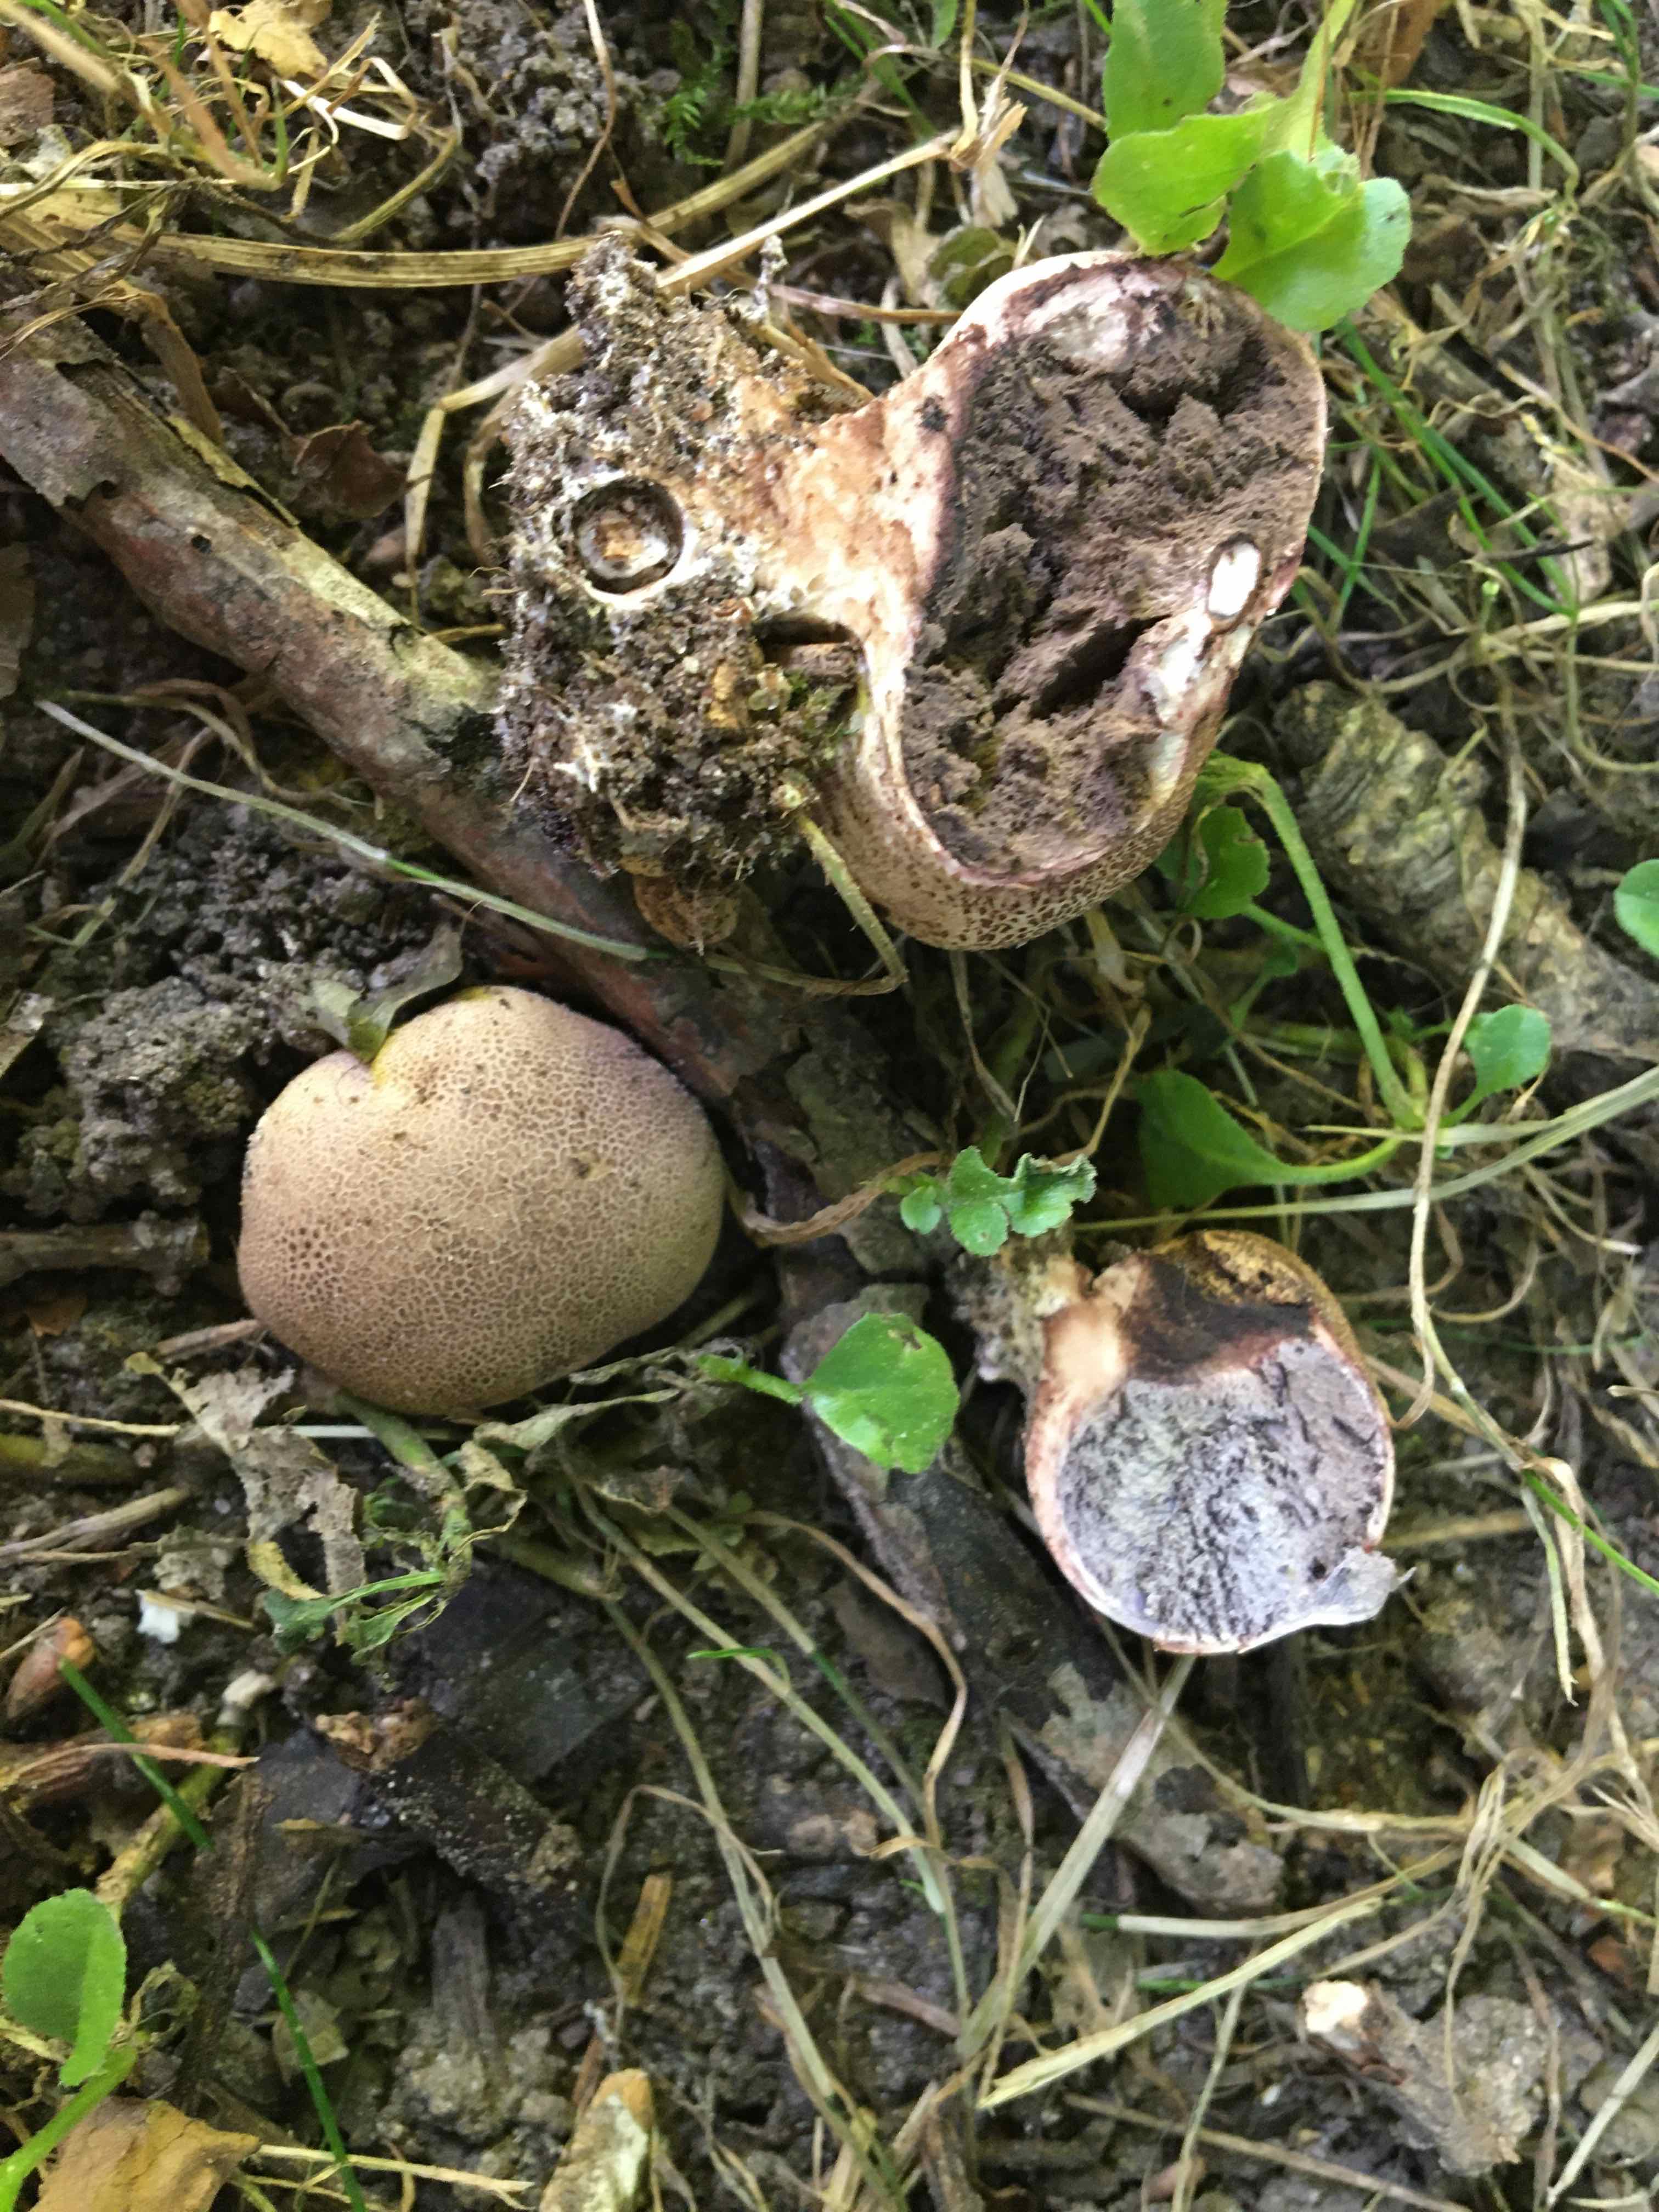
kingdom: Fungi
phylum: Basidiomycota
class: Agaricomycetes
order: Boletales
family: Sclerodermataceae
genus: Scleroderma
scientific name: Scleroderma
